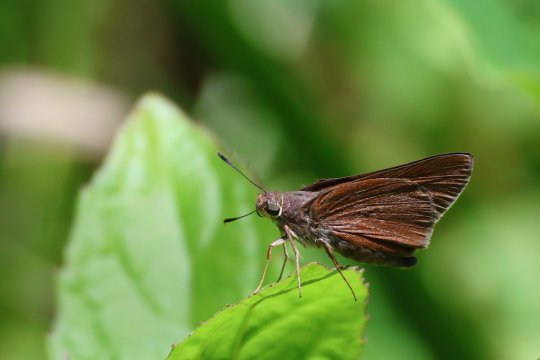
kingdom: Animalia
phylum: Arthropoda
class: Insecta
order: Lepidoptera
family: Hesperiidae
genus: Asbolis
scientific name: Asbolis capucinus
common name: Monk Skipper
